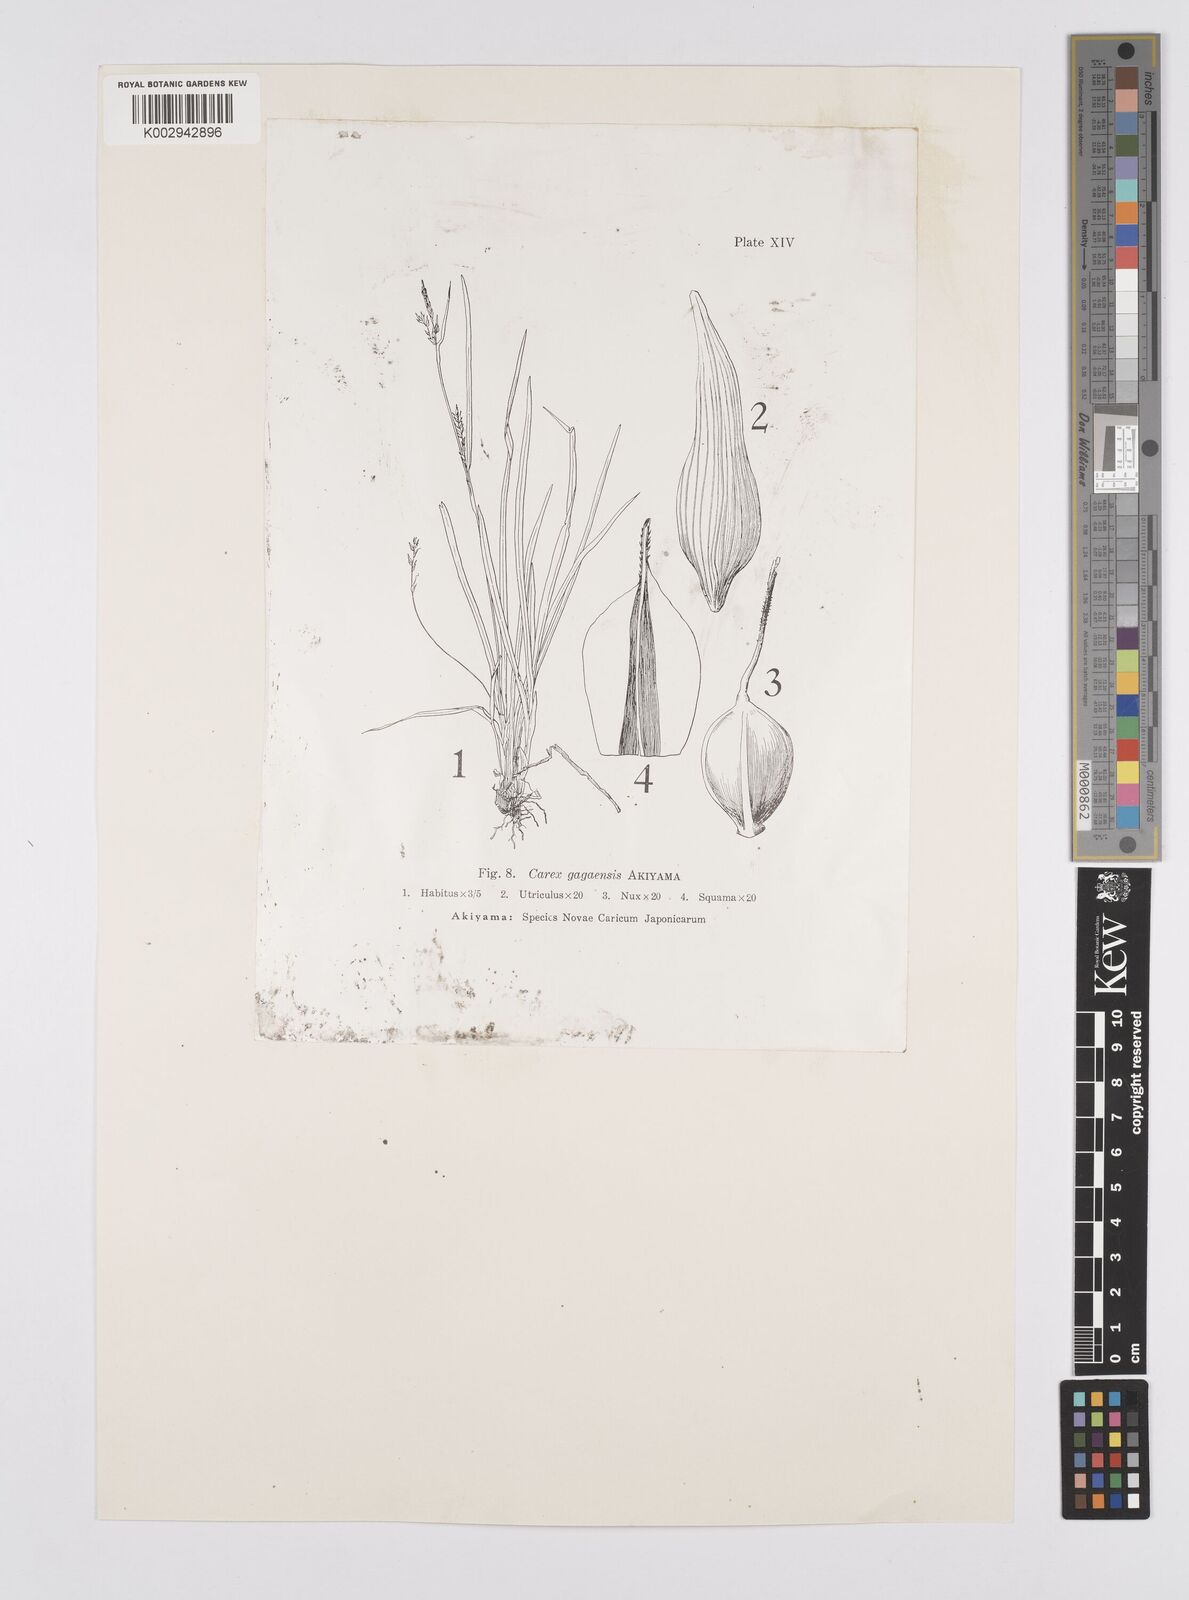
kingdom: Plantae
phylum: Tracheophyta
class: Liliopsida
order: Poales
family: Cyperaceae
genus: Carex
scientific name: Carex parciflora
